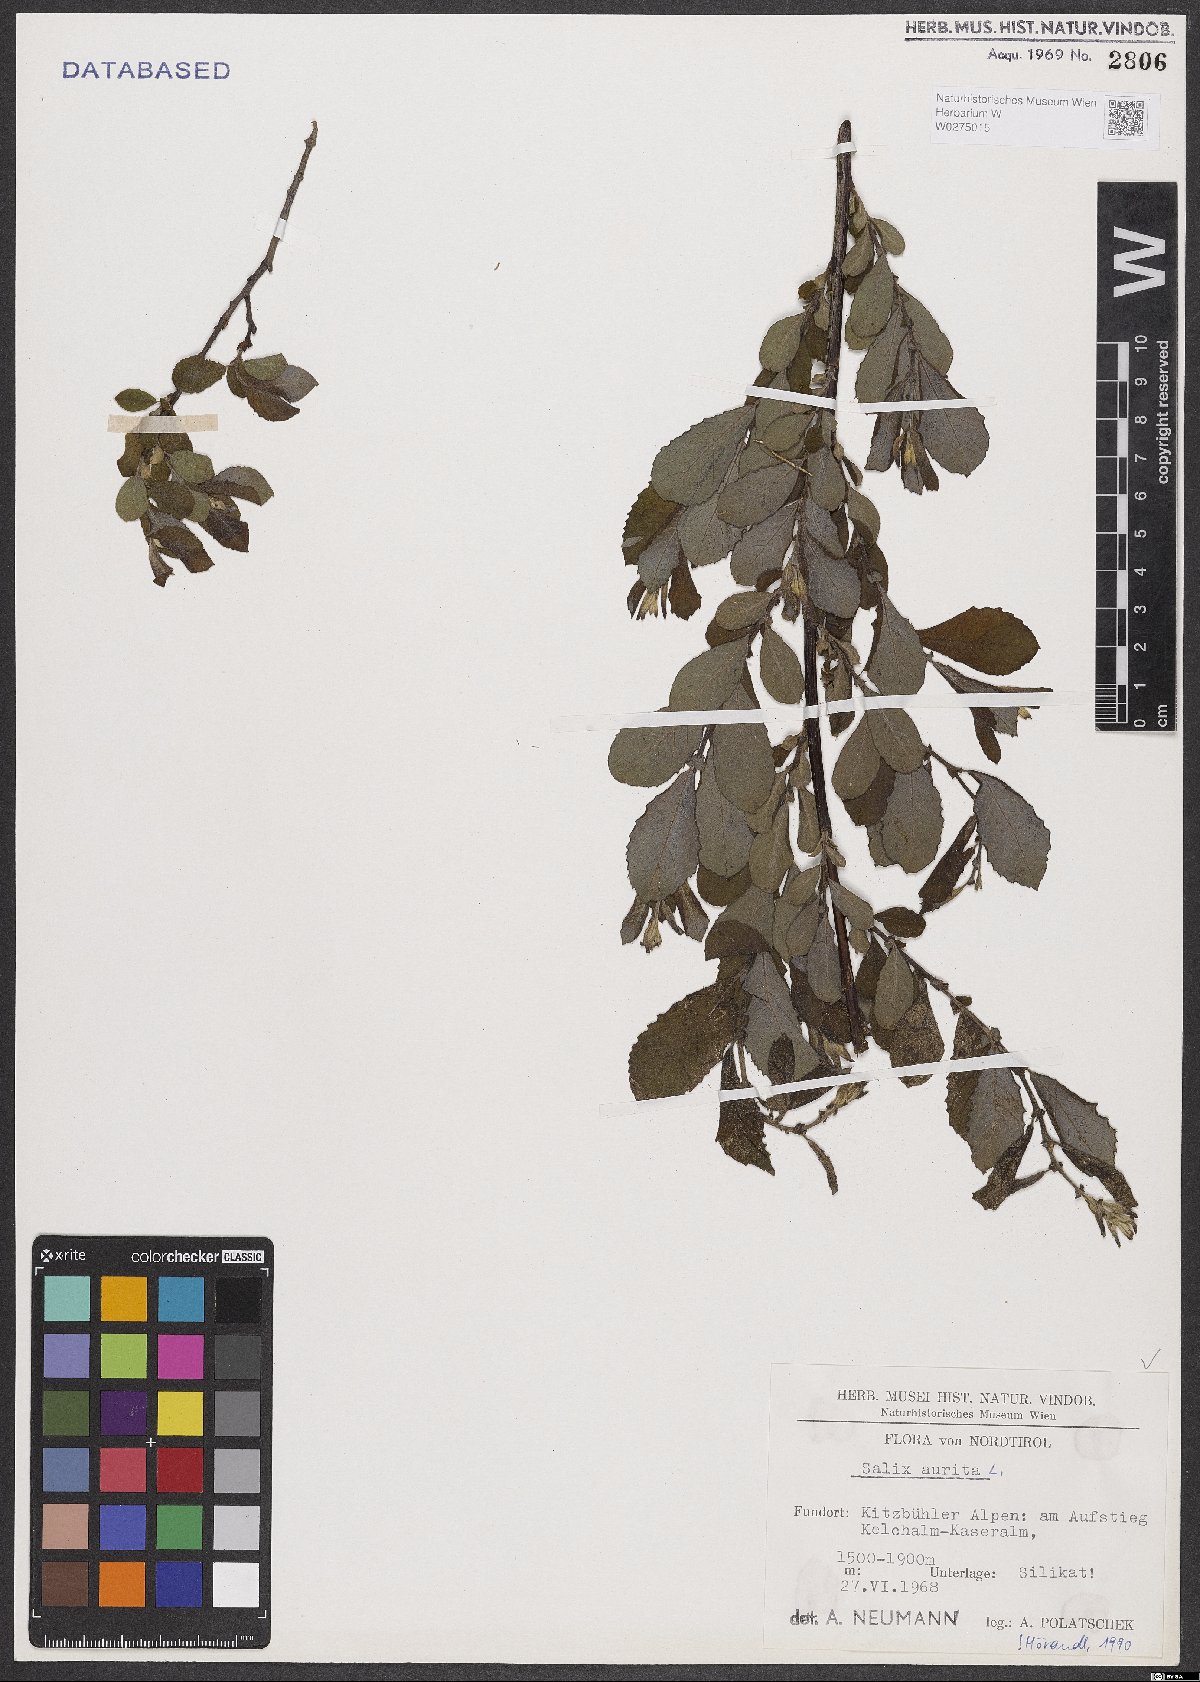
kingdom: Plantae
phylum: Tracheophyta
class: Magnoliopsida
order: Malpighiales
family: Salicaceae
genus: Salix
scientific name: Salix aurita
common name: Eared willow
